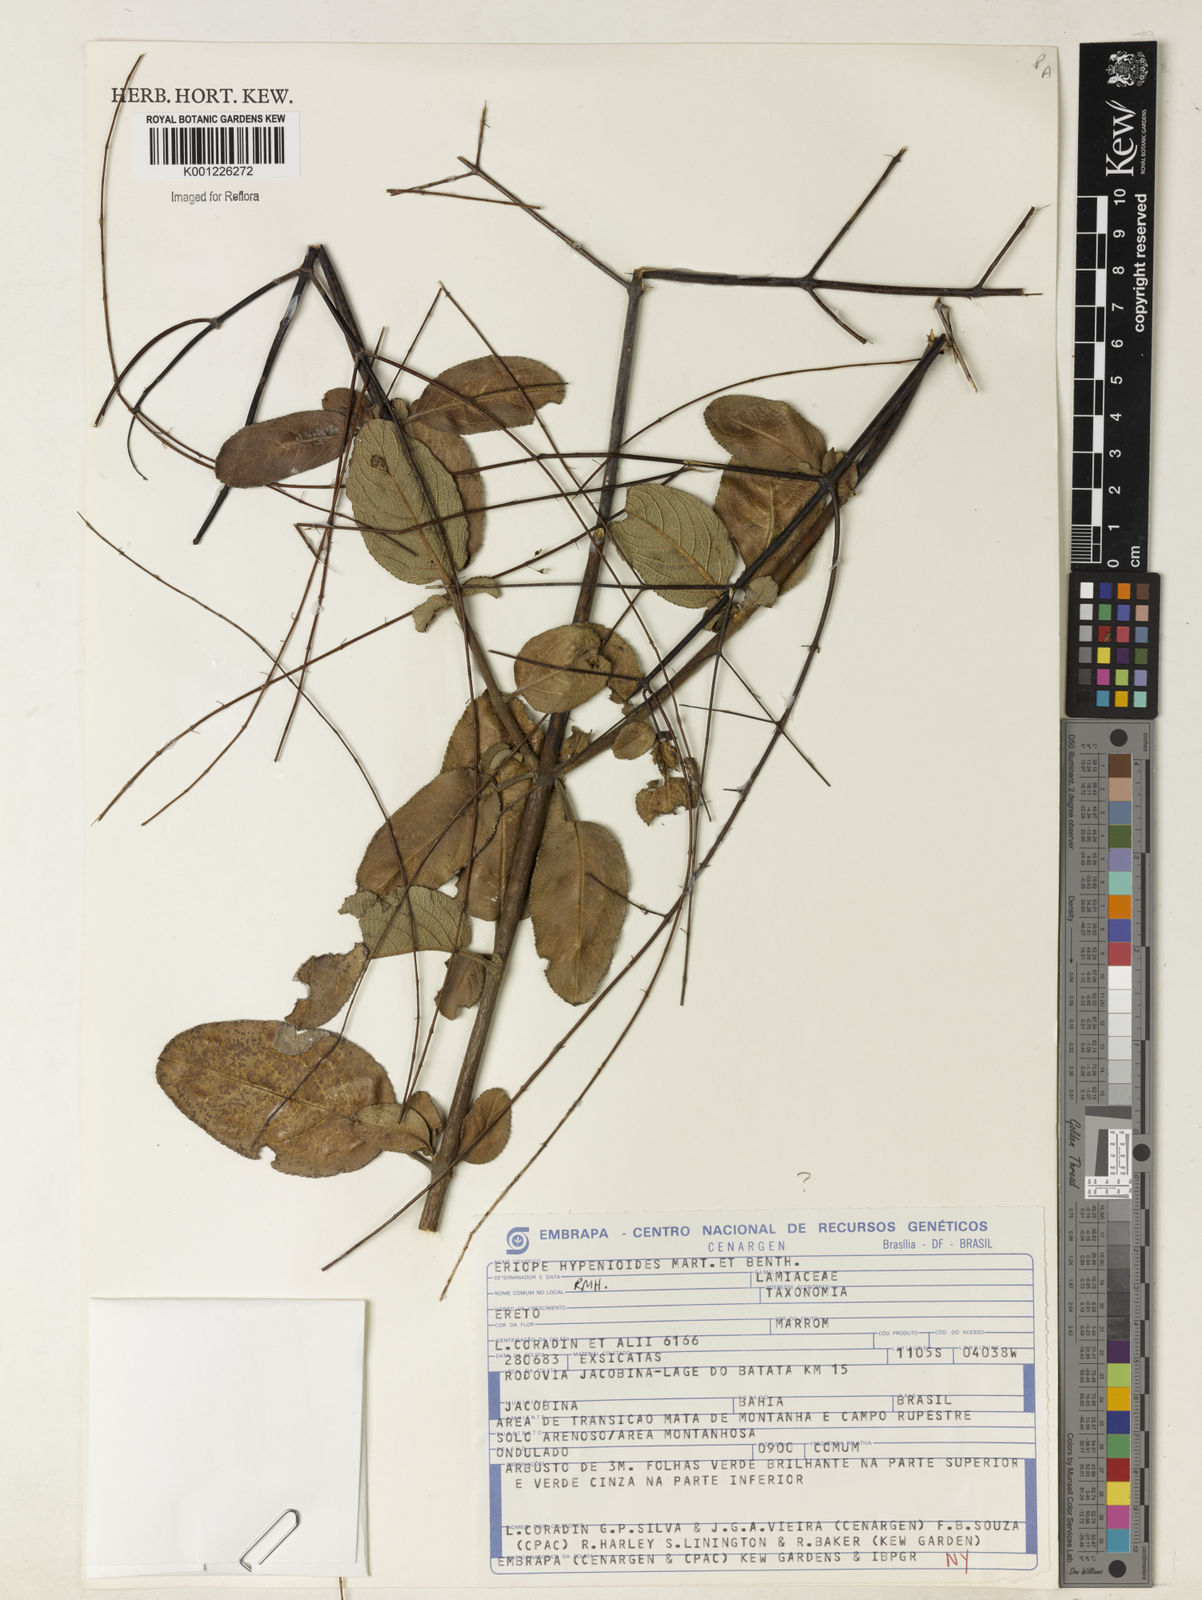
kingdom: Plantae
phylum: Tracheophyta
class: Magnoliopsida
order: Lamiales
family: Lamiaceae
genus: Eriope
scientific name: Eriope hypenioides
